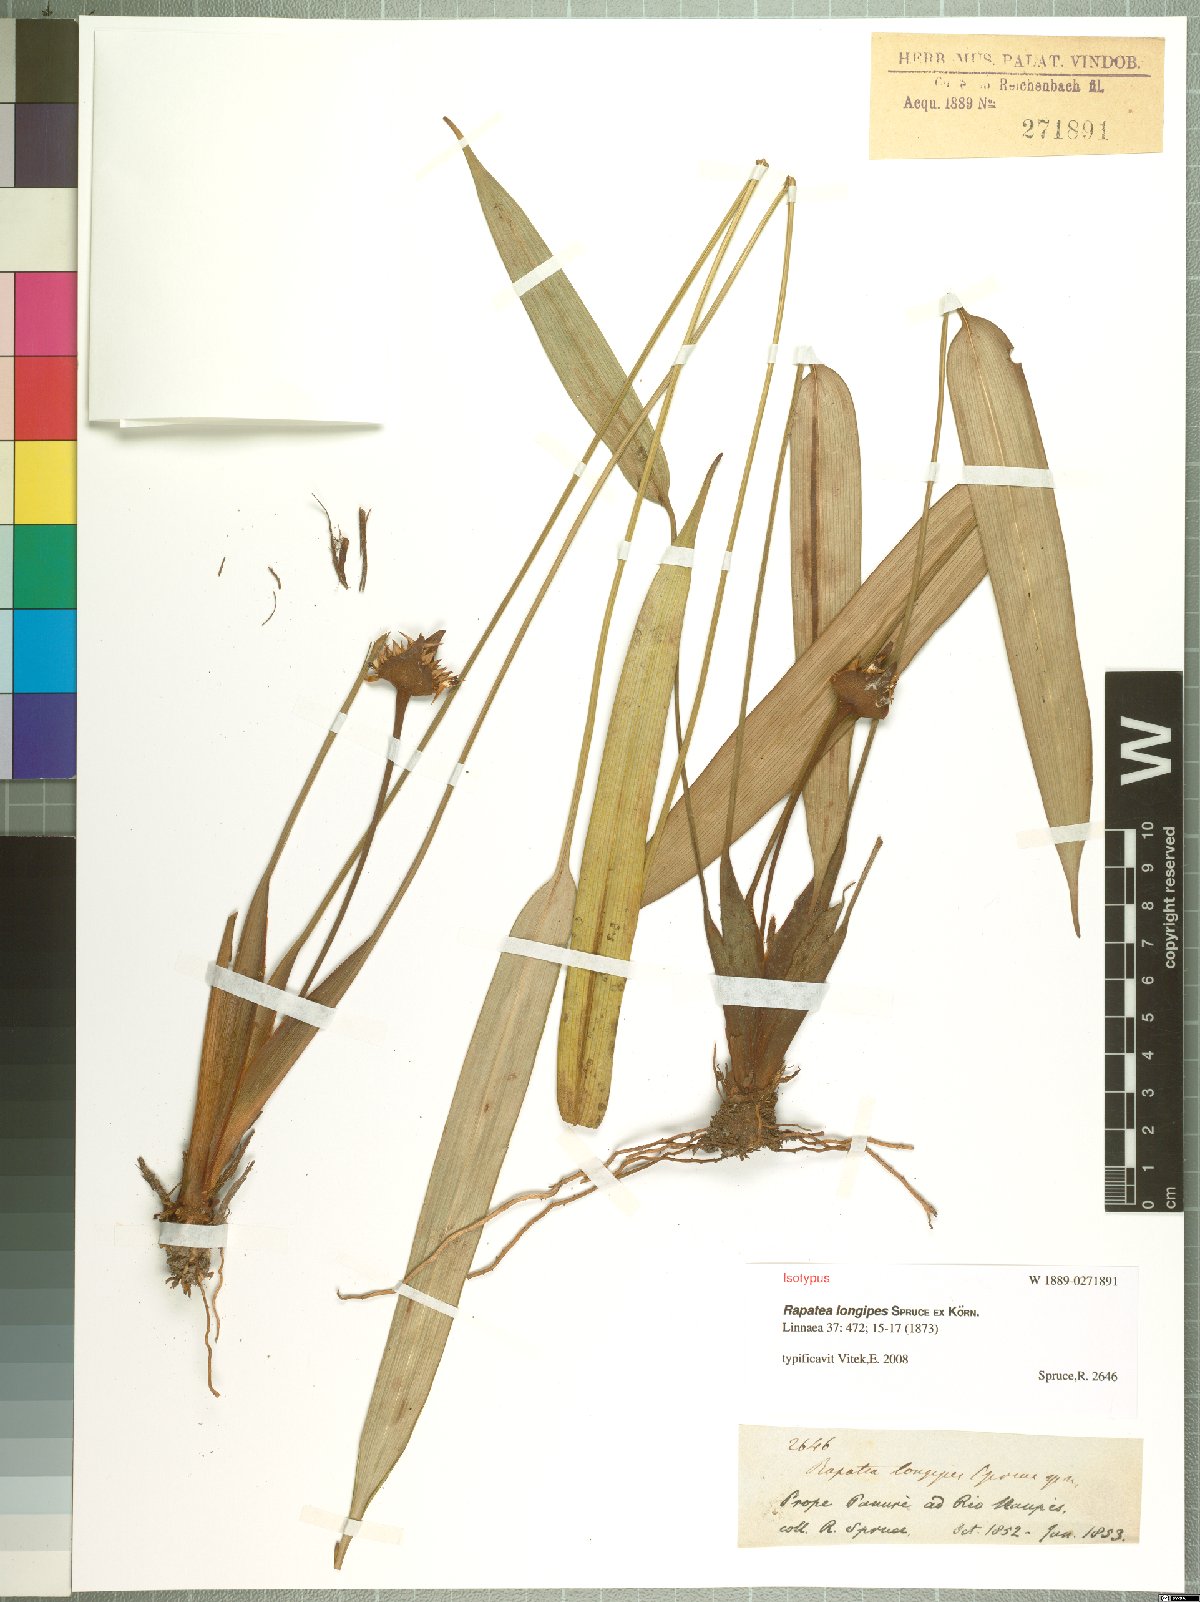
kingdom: Plantae
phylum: Tracheophyta
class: Liliopsida
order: Poales
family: Rapateaceae
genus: Rapatea
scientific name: Rapatea longipes
